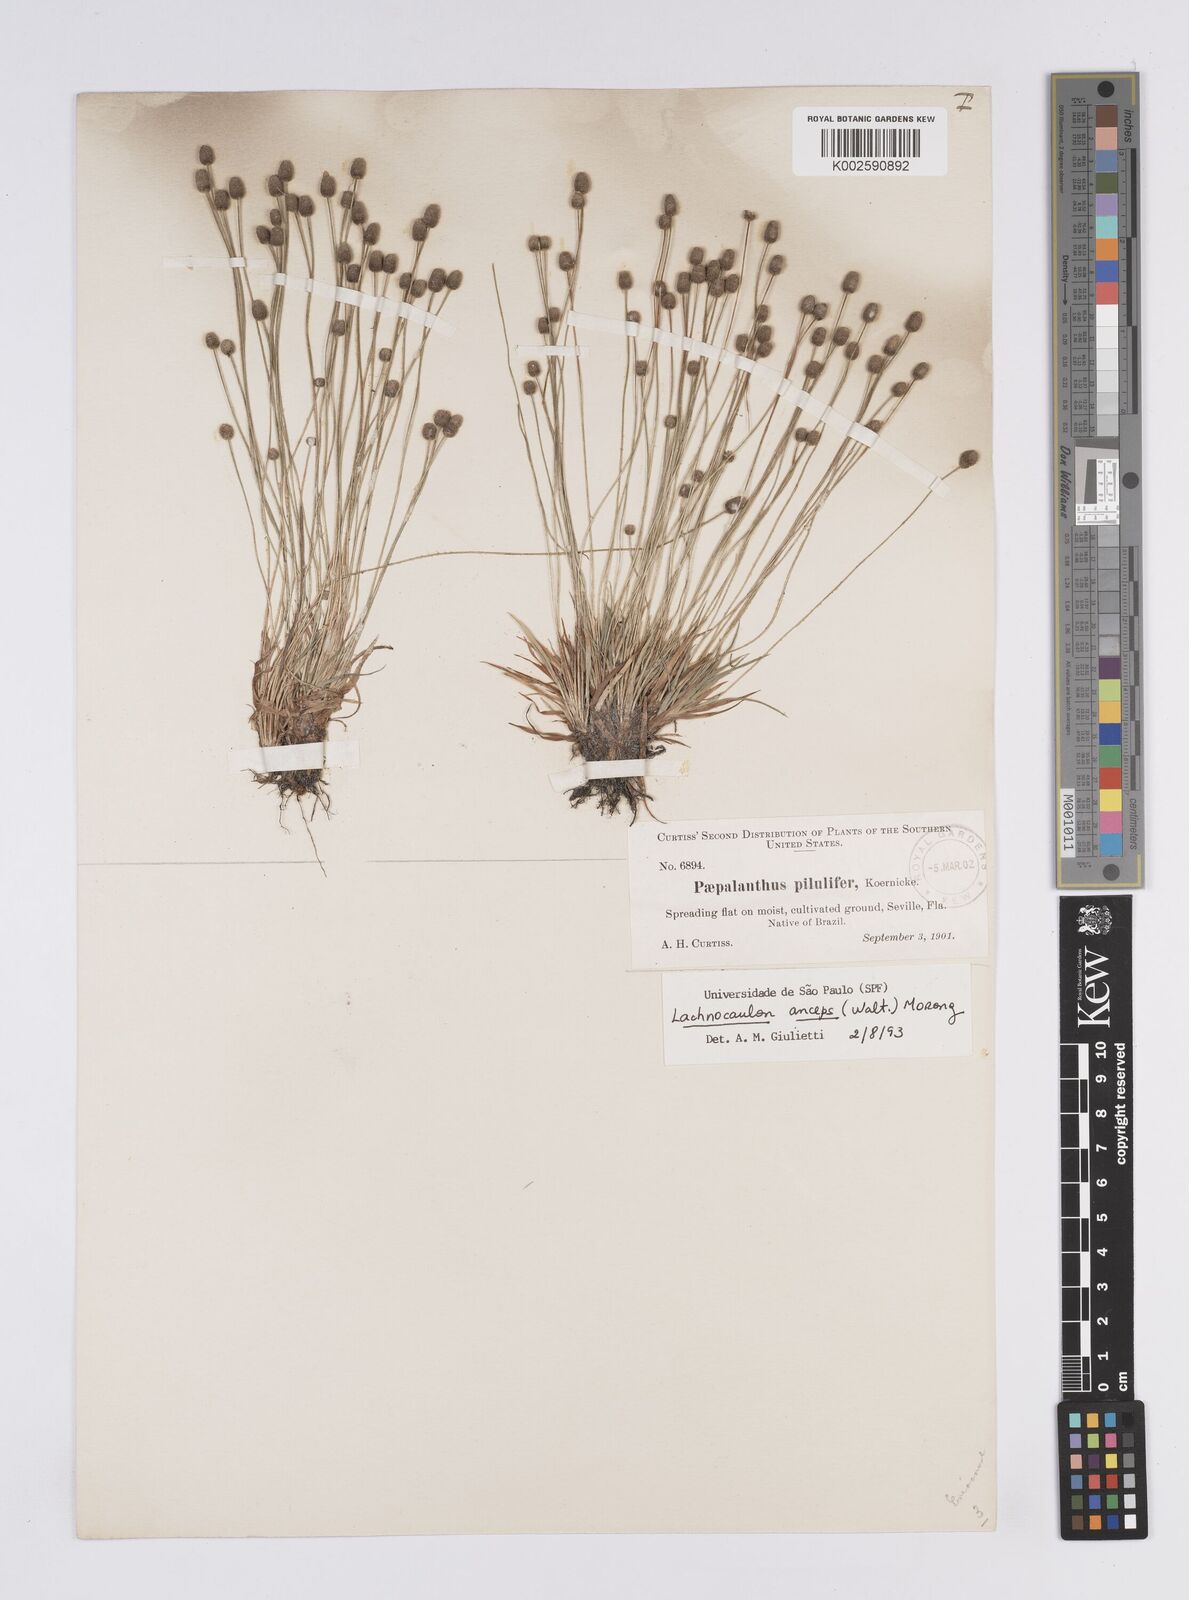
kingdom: Plantae
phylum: Tracheophyta
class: Liliopsida
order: Poales
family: Eriocaulaceae
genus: Paepalanthus
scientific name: Paepalanthus anceps
